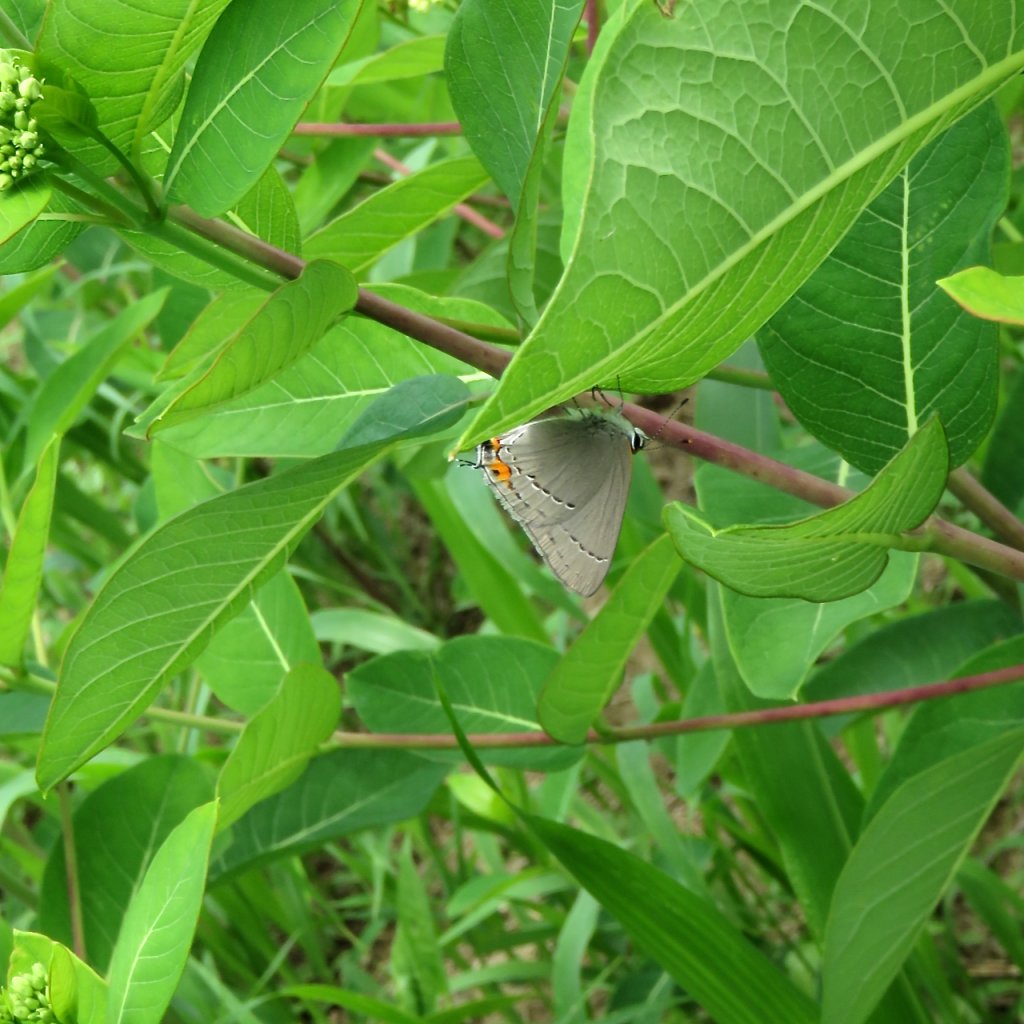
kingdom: Animalia
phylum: Arthropoda
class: Insecta
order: Lepidoptera
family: Lycaenidae
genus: Strymon
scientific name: Strymon melinus
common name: Gray Hairstreak
